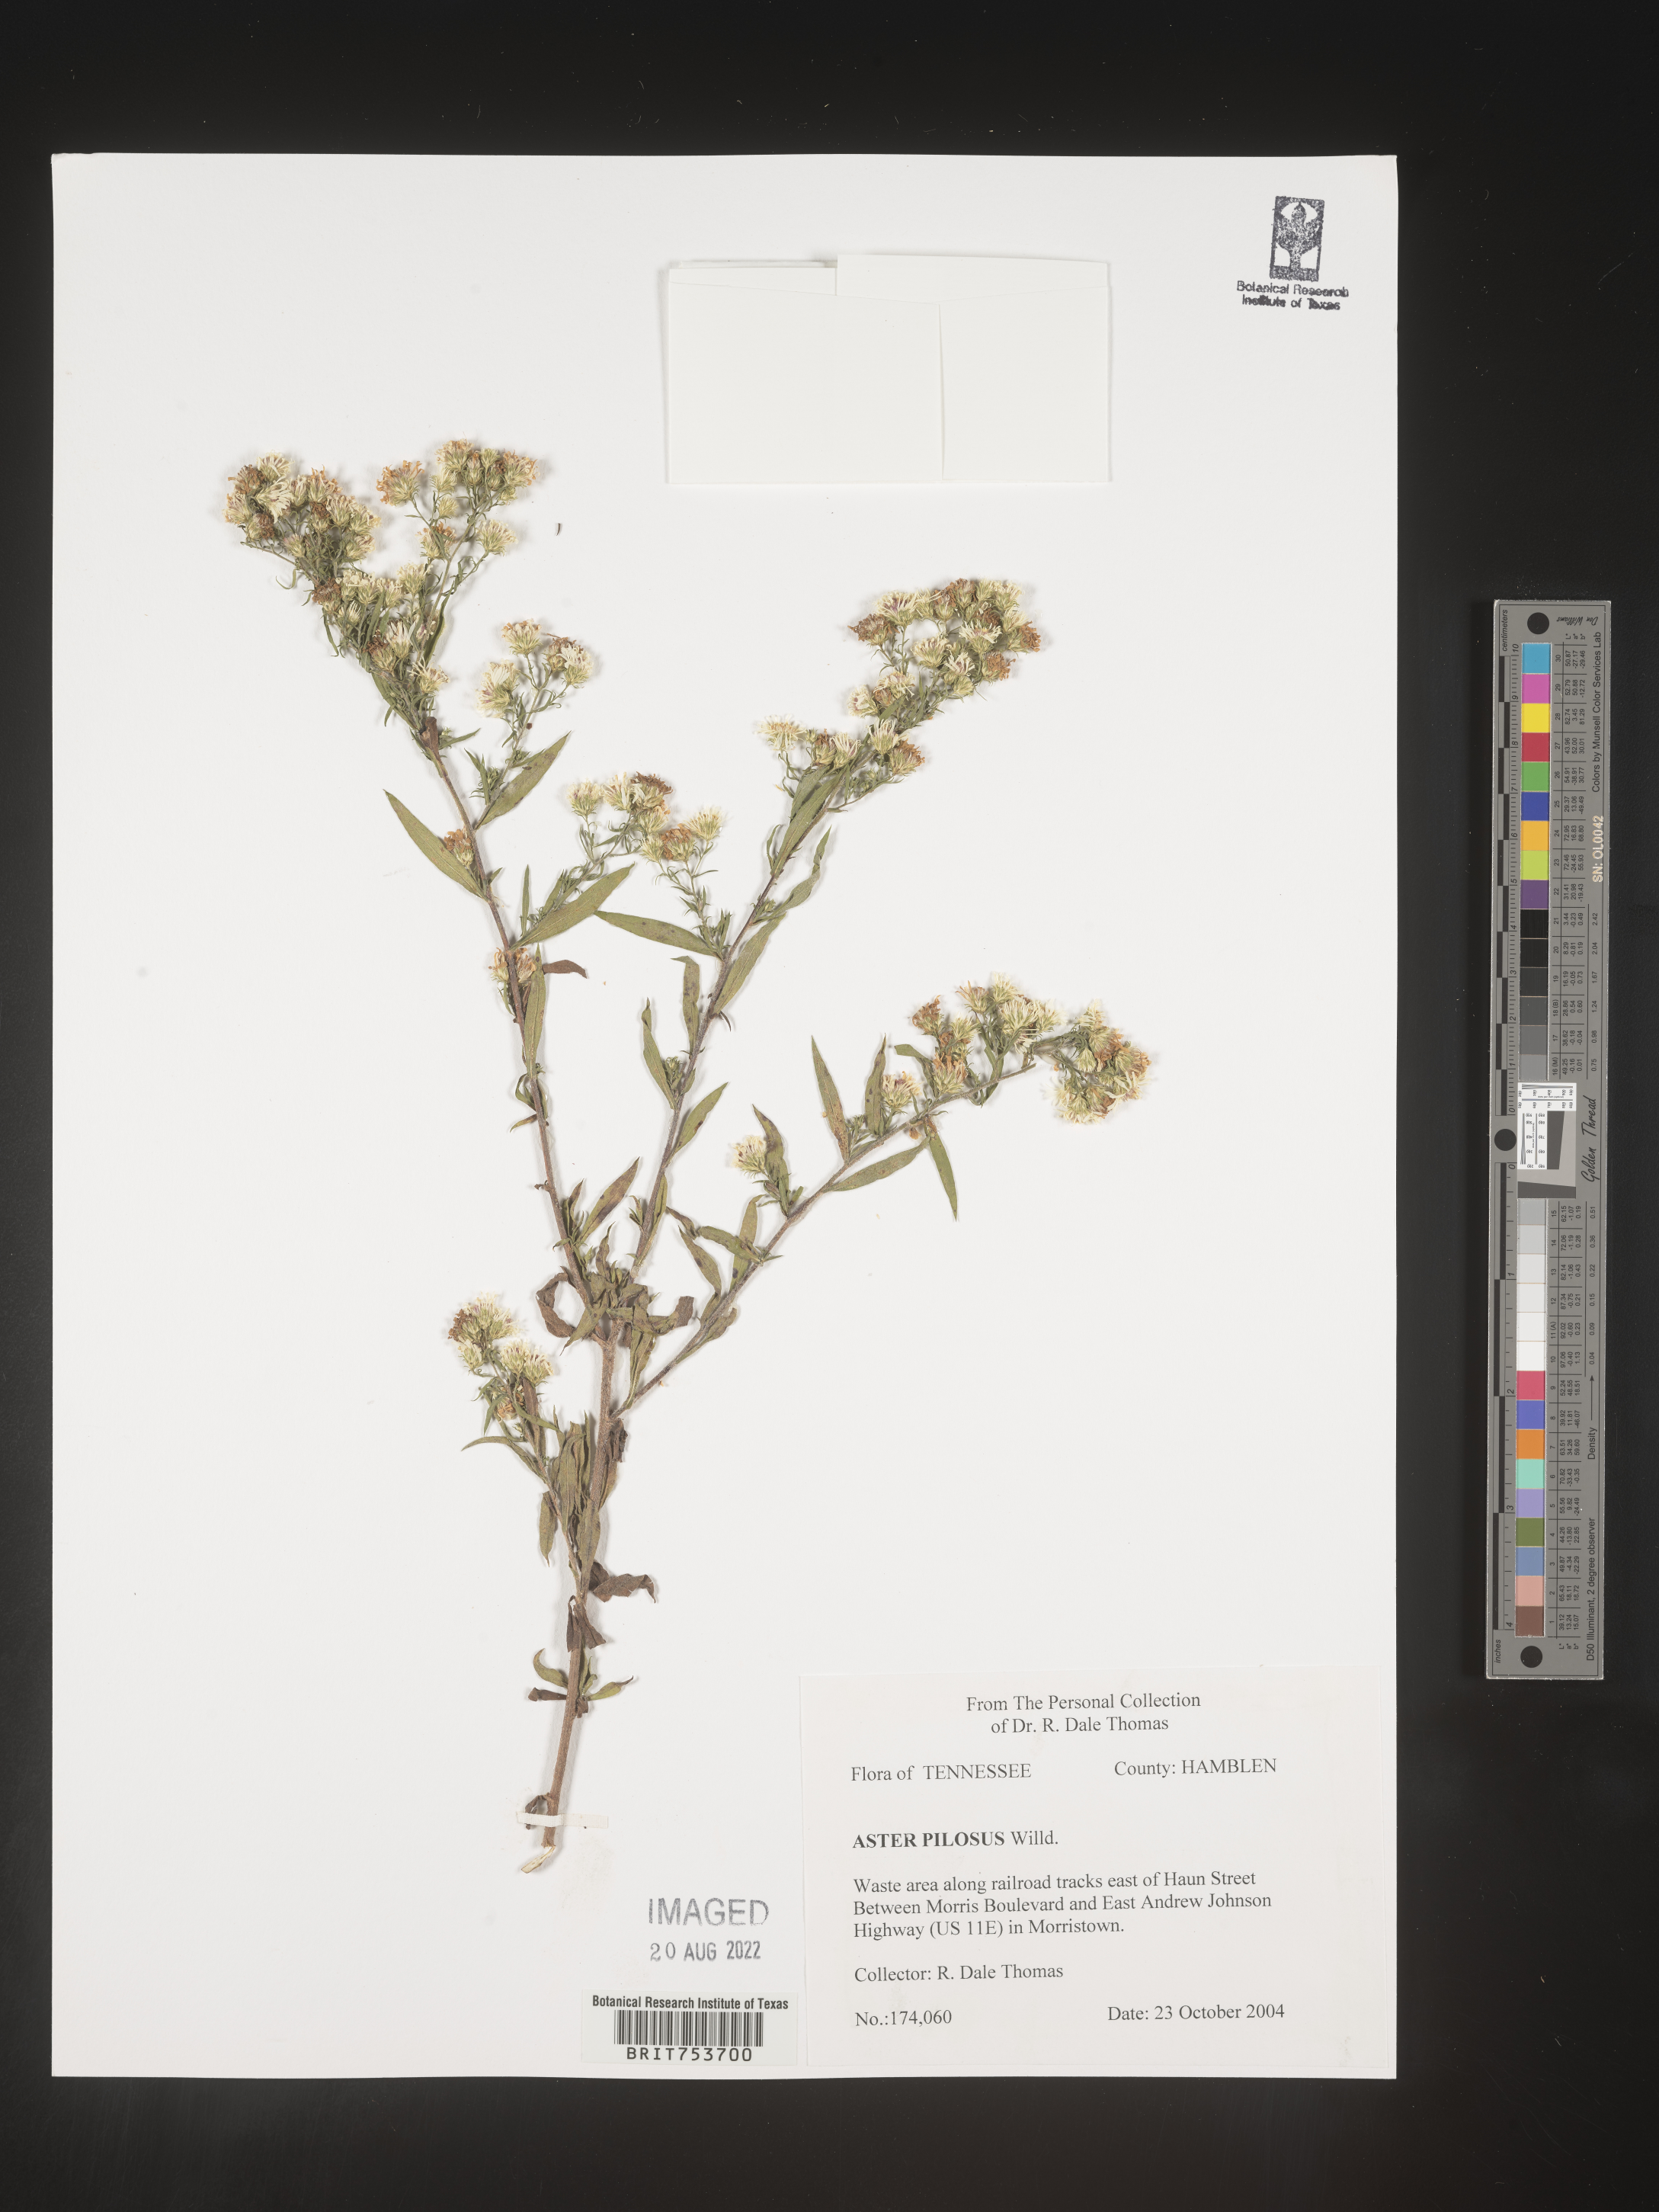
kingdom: Plantae
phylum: Tracheophyta
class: Magnoliopsida
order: Asterales
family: Asteraceae
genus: Symphyotrichum
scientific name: Symphyotrichum pilosum
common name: Awl aster
